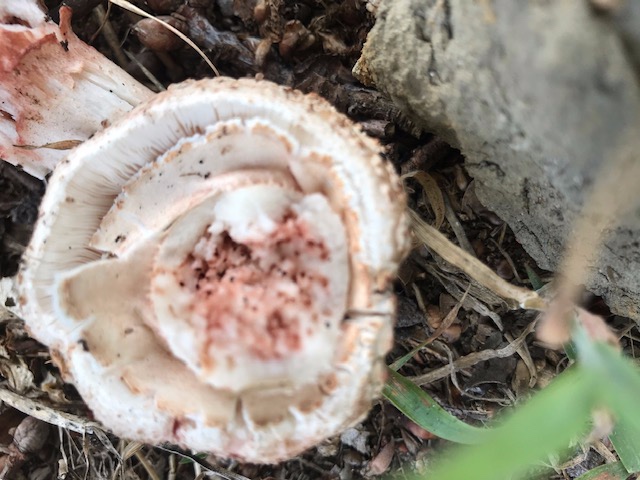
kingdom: Fungi
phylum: Basidiomycota
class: Agaricomycetes
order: Agaricales
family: Amanitaceae
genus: Amanita
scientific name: Amanita rubescens
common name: rødmende fluesvamp
